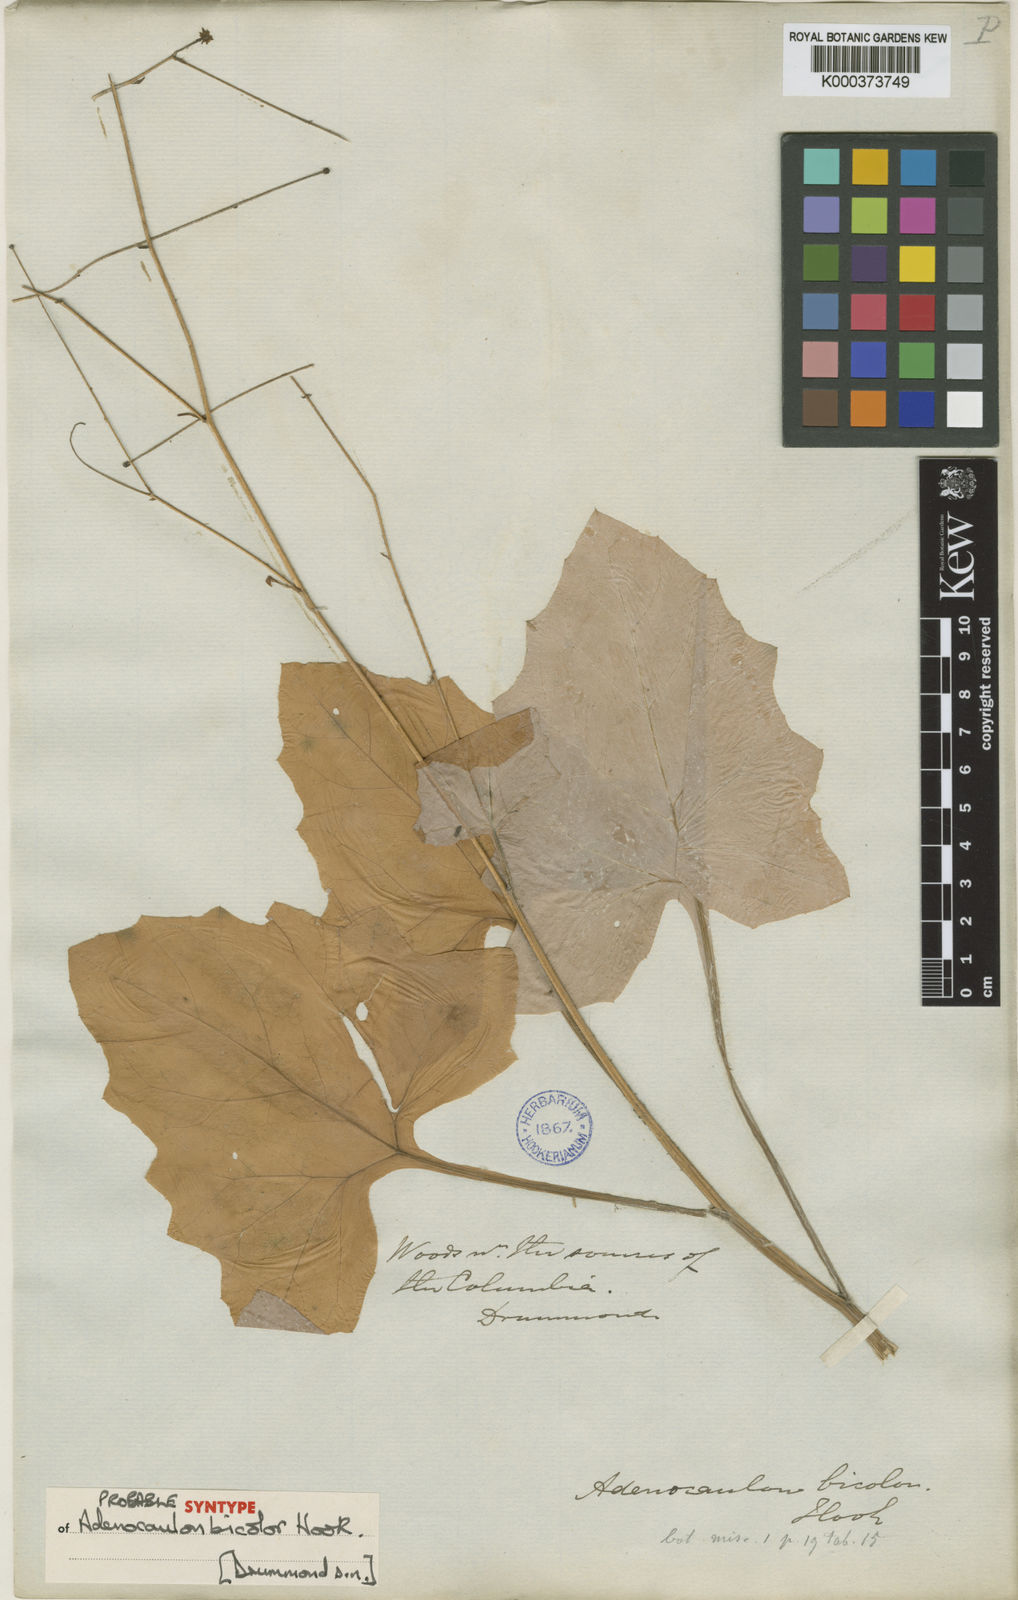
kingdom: Plantae
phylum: Tracheophyta
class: Magnoliopsida
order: Asterales
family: Asteraceae
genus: Adenocaulon
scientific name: Adenocaulon bicolor
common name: Trailplant
